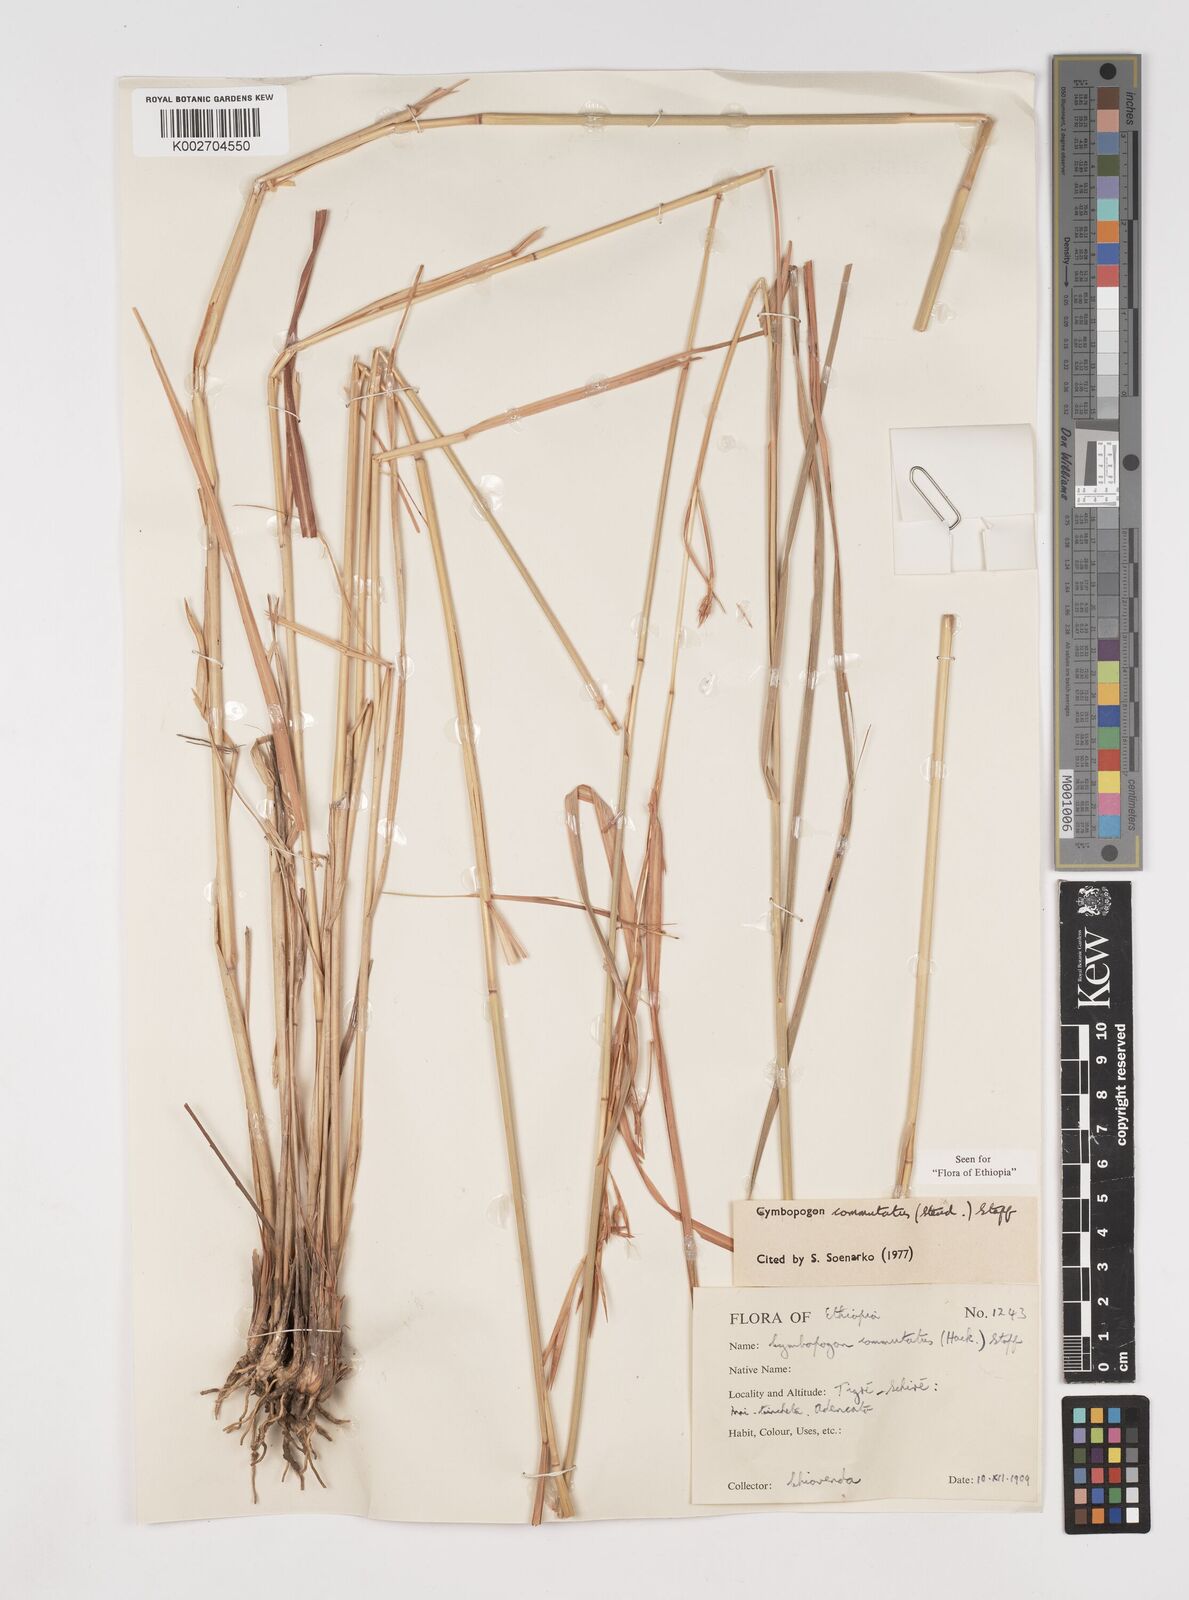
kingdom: Plantae
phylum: Tracheophyta
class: Liliopsida
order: Poales
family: Poaceae
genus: Cymbopogon
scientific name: Cymbopogon commutatus
